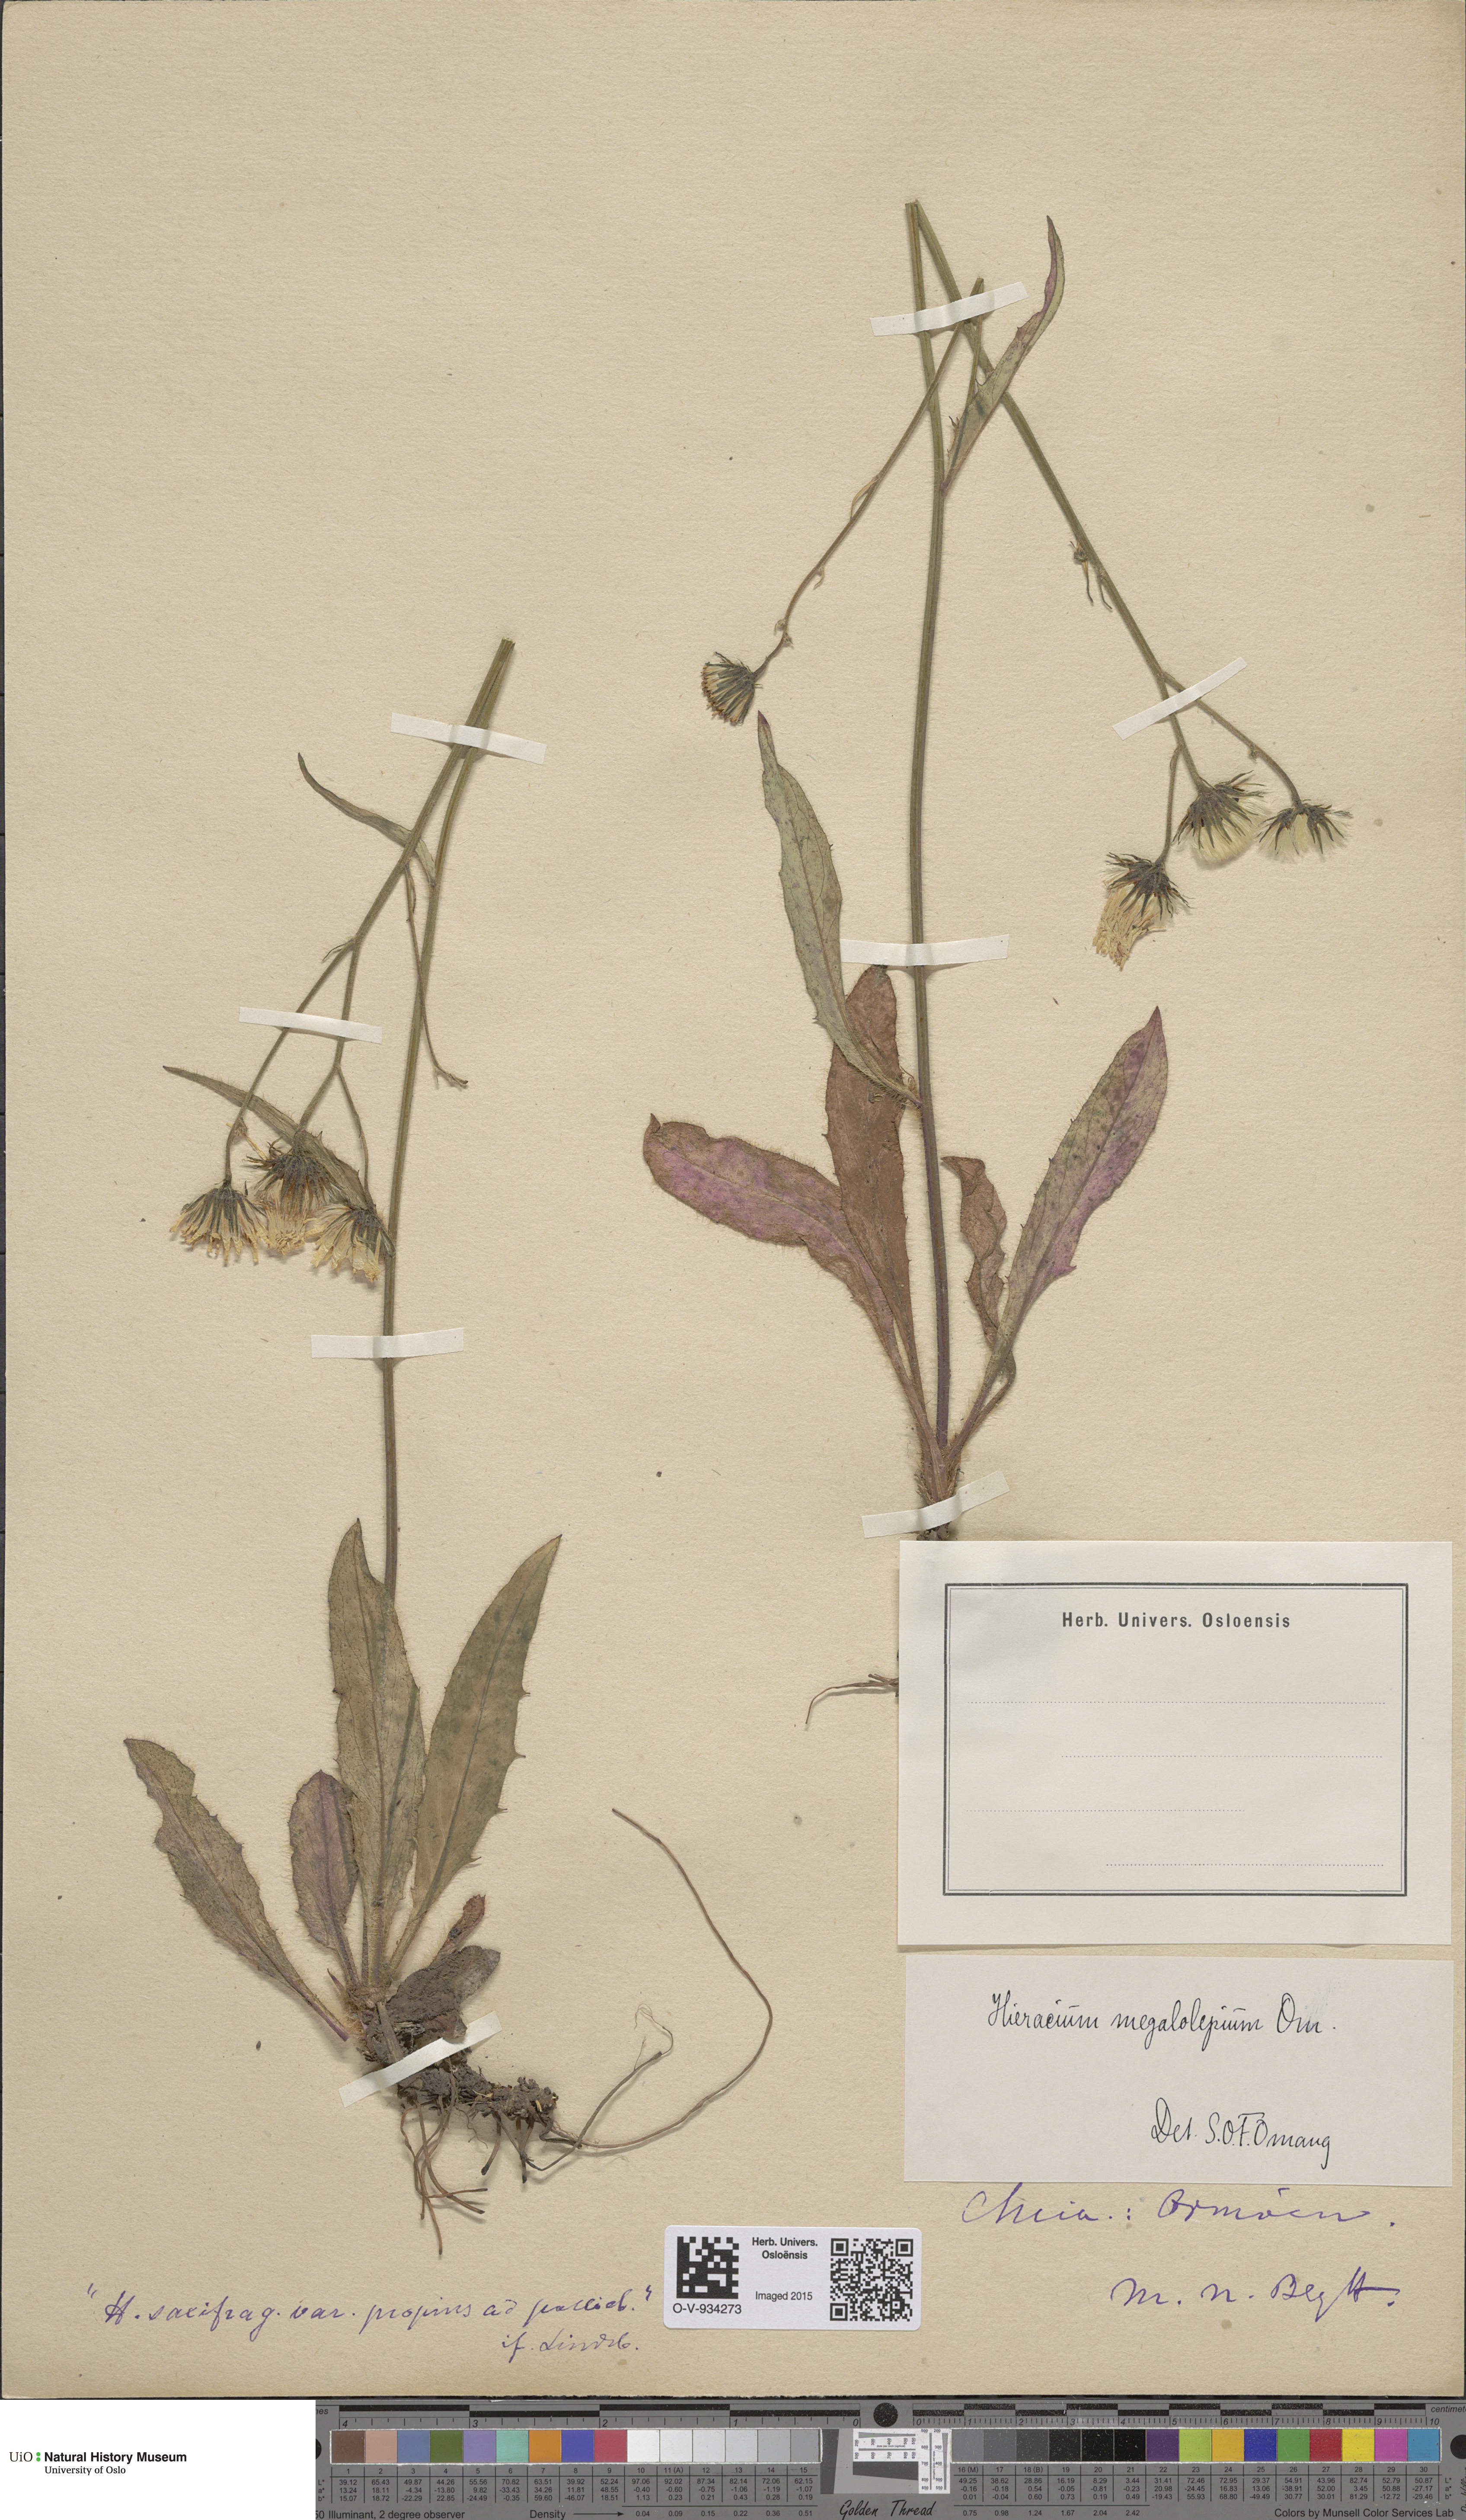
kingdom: Plantae
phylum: Tracheophyta
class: Magnoliopsida
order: Asterales
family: Asteraceae
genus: Hieracium
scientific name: Hieracium saxifragum
